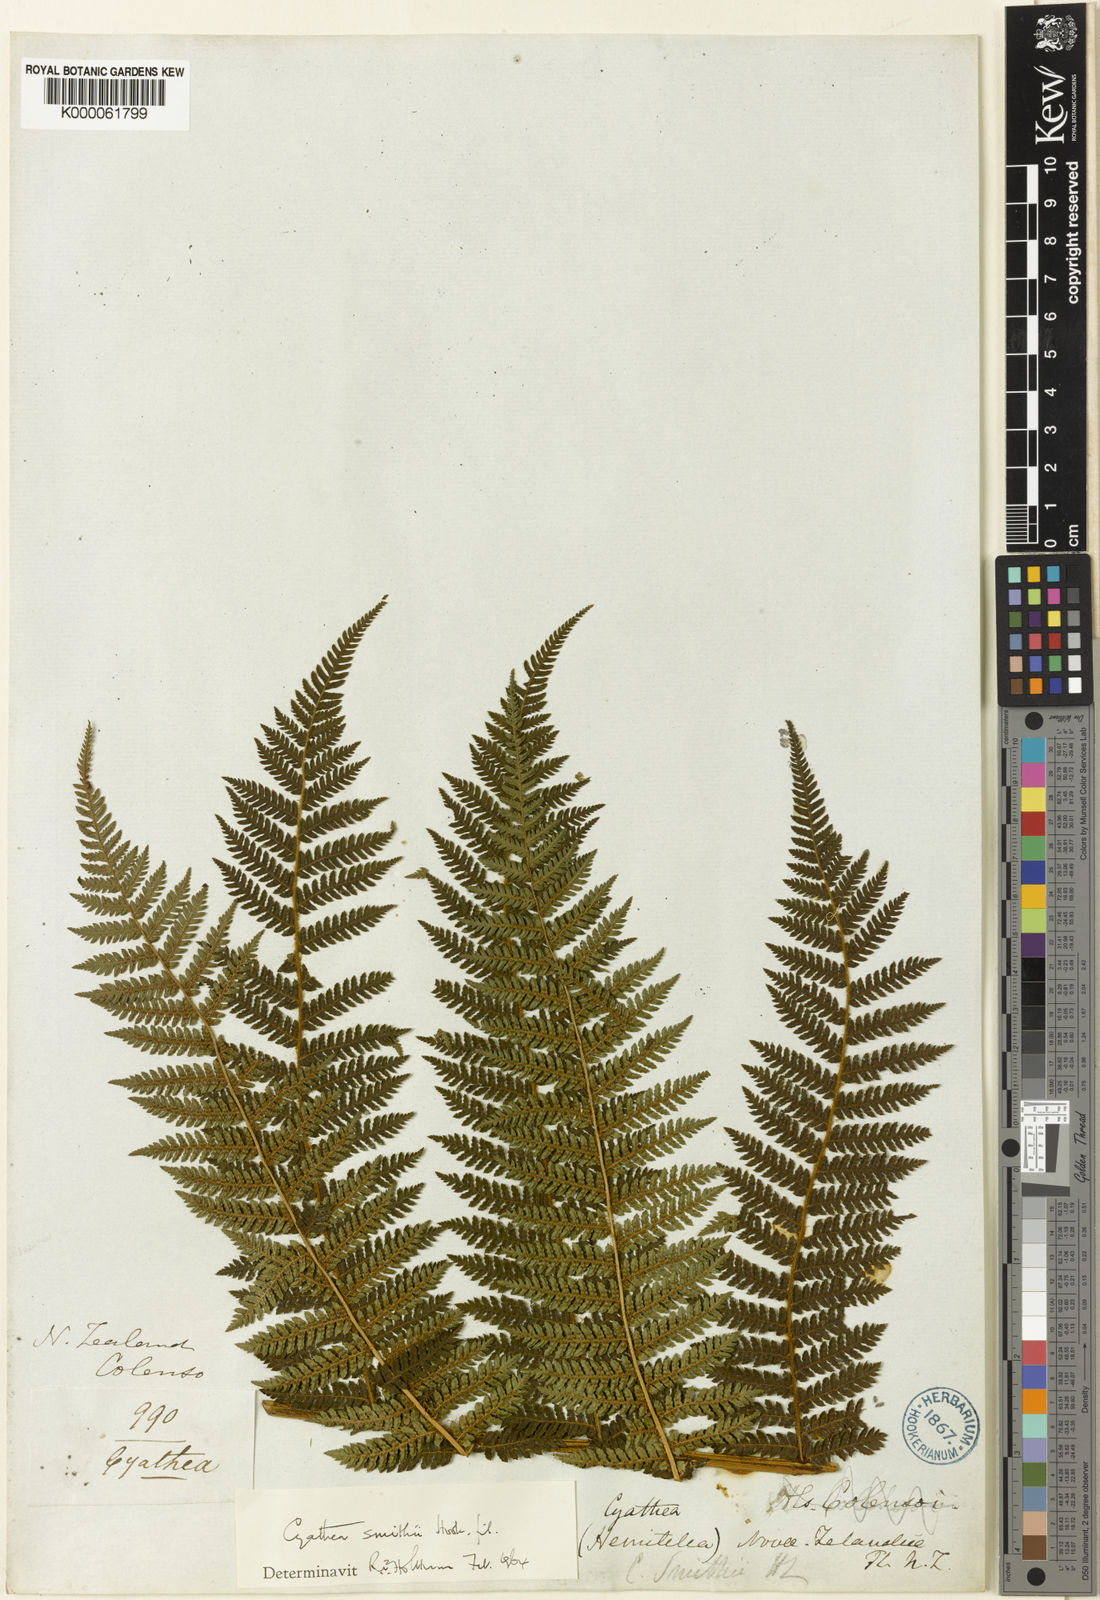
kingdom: Plantae
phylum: Tracheophyta
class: Polypodiopsida
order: Cyatheales
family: Cyatheaceae
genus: Alsophila
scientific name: Alsophila smithii
